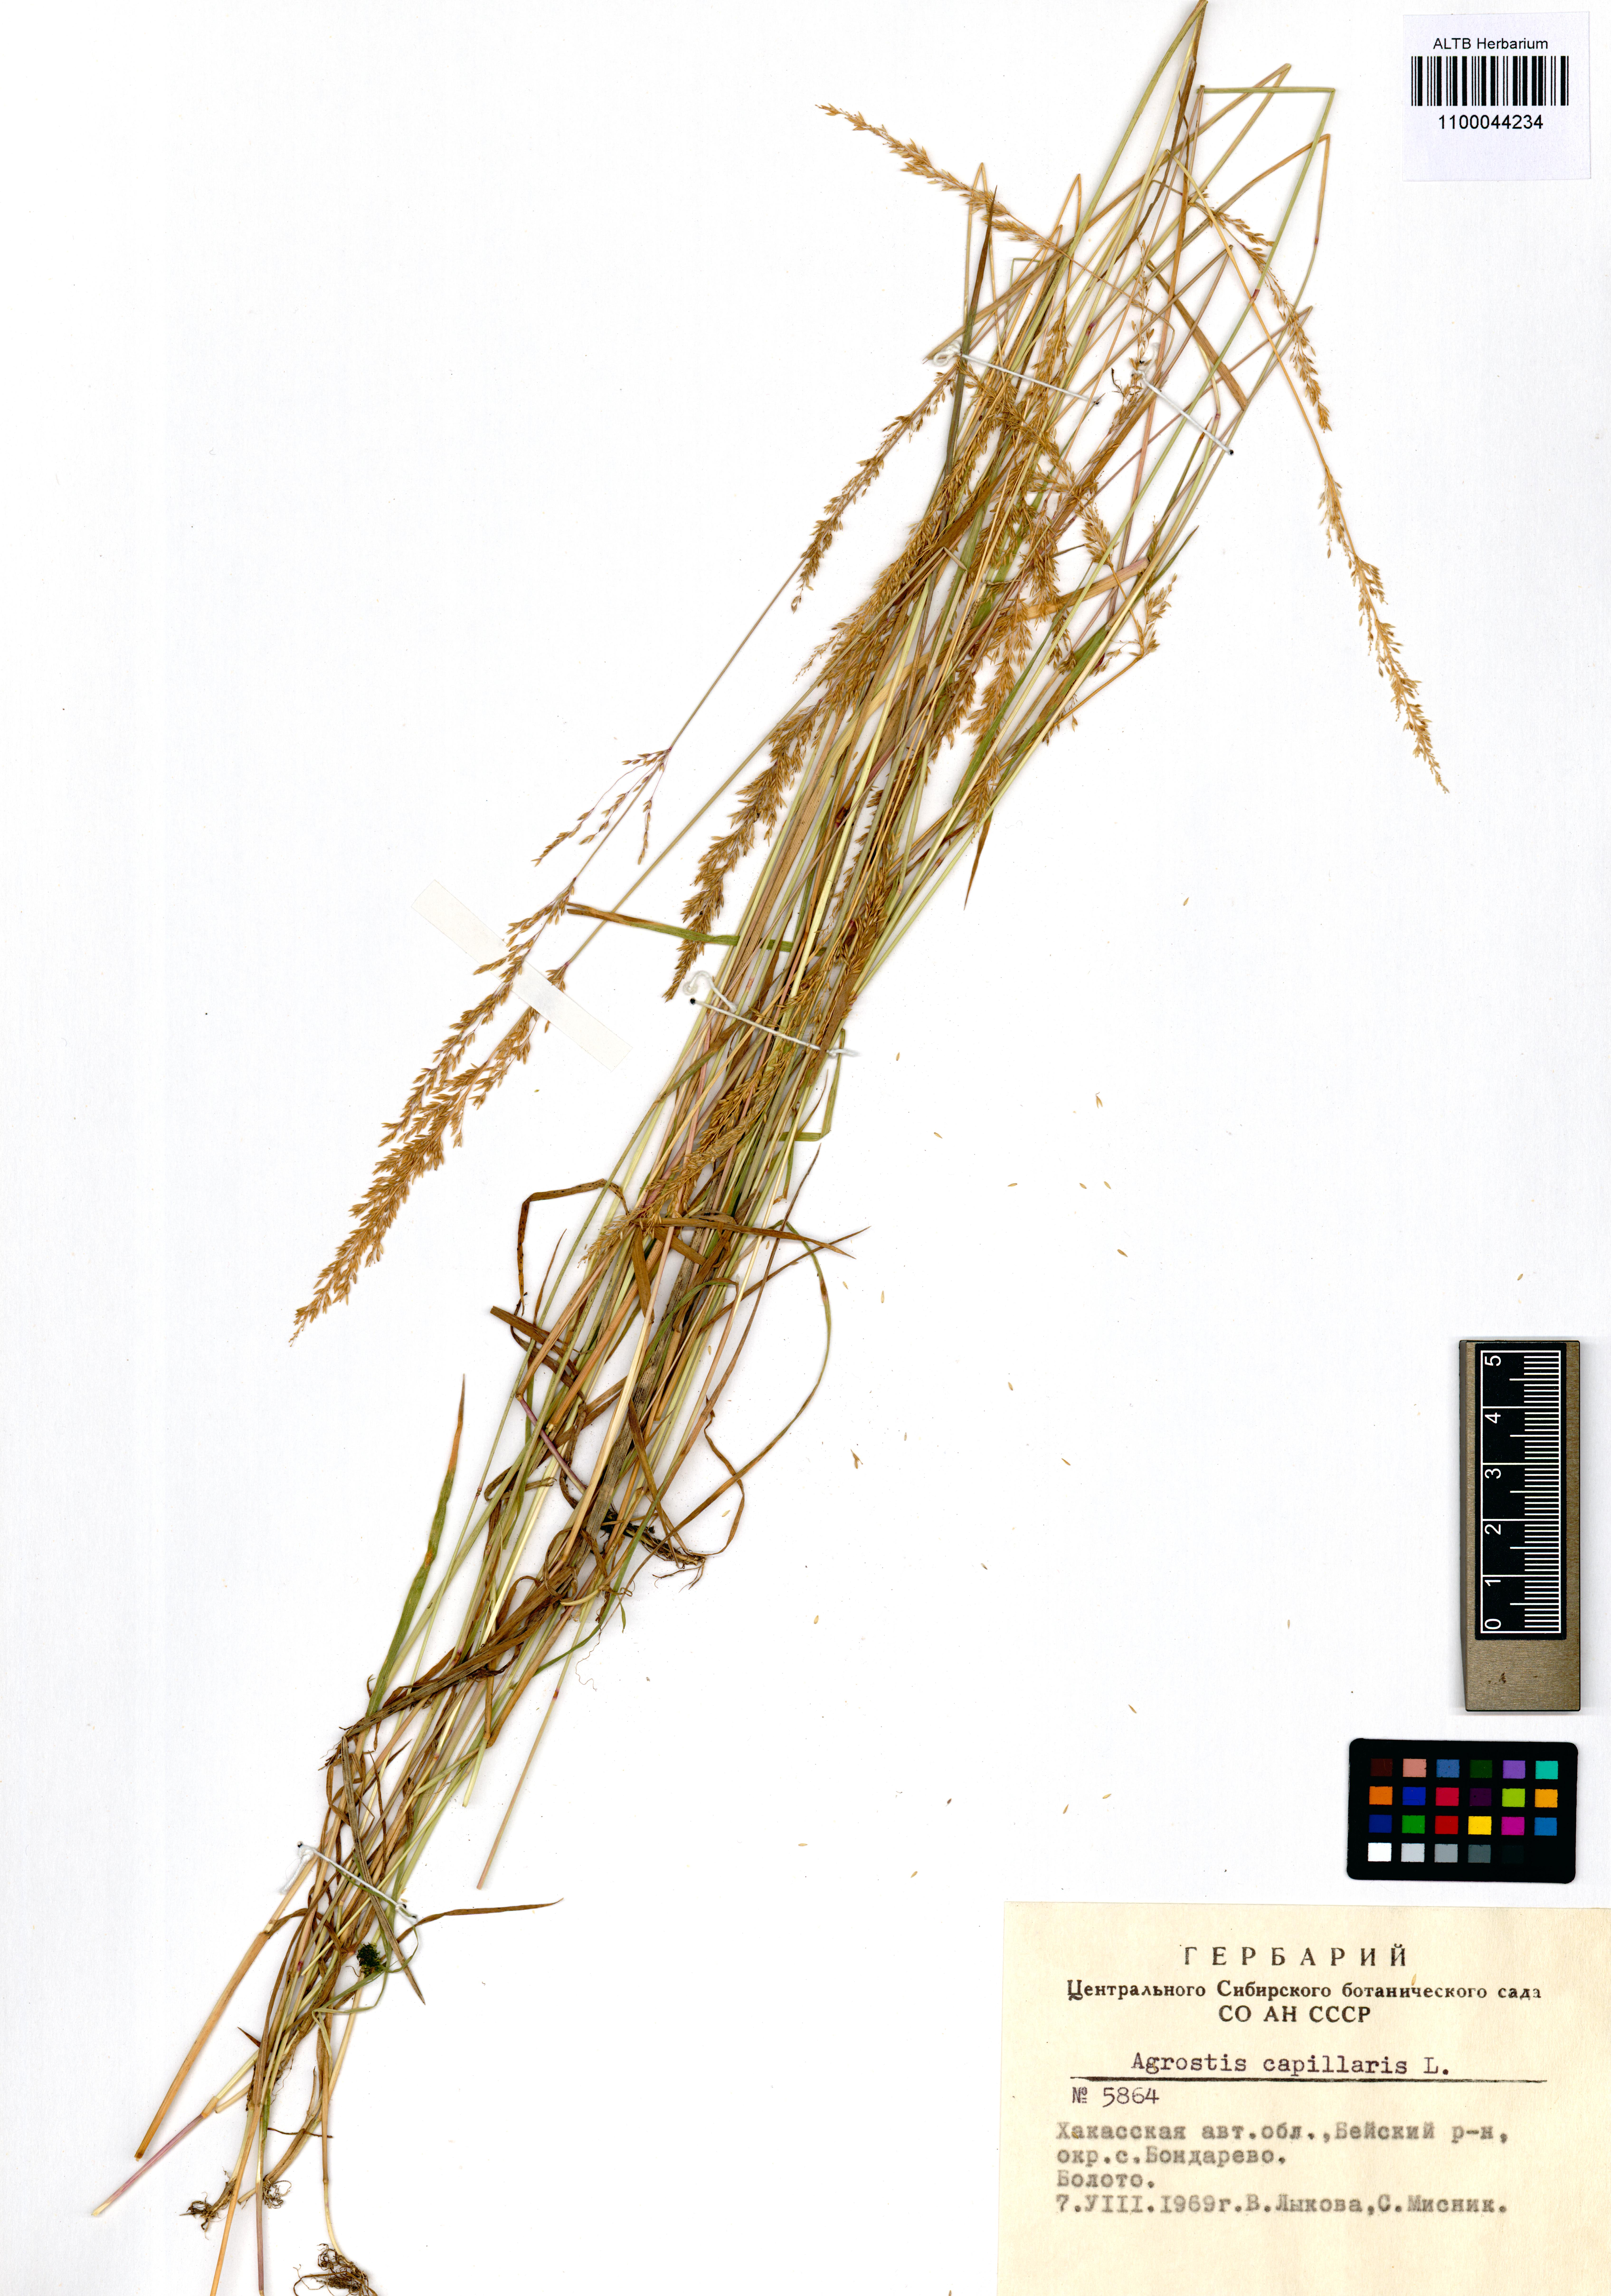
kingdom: Plantae
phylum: Tracheophyta
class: Liliopsida
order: Poales
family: Poaceae
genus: Agrostis
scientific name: Agrostis capillaris
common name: Colonial bentgrass
